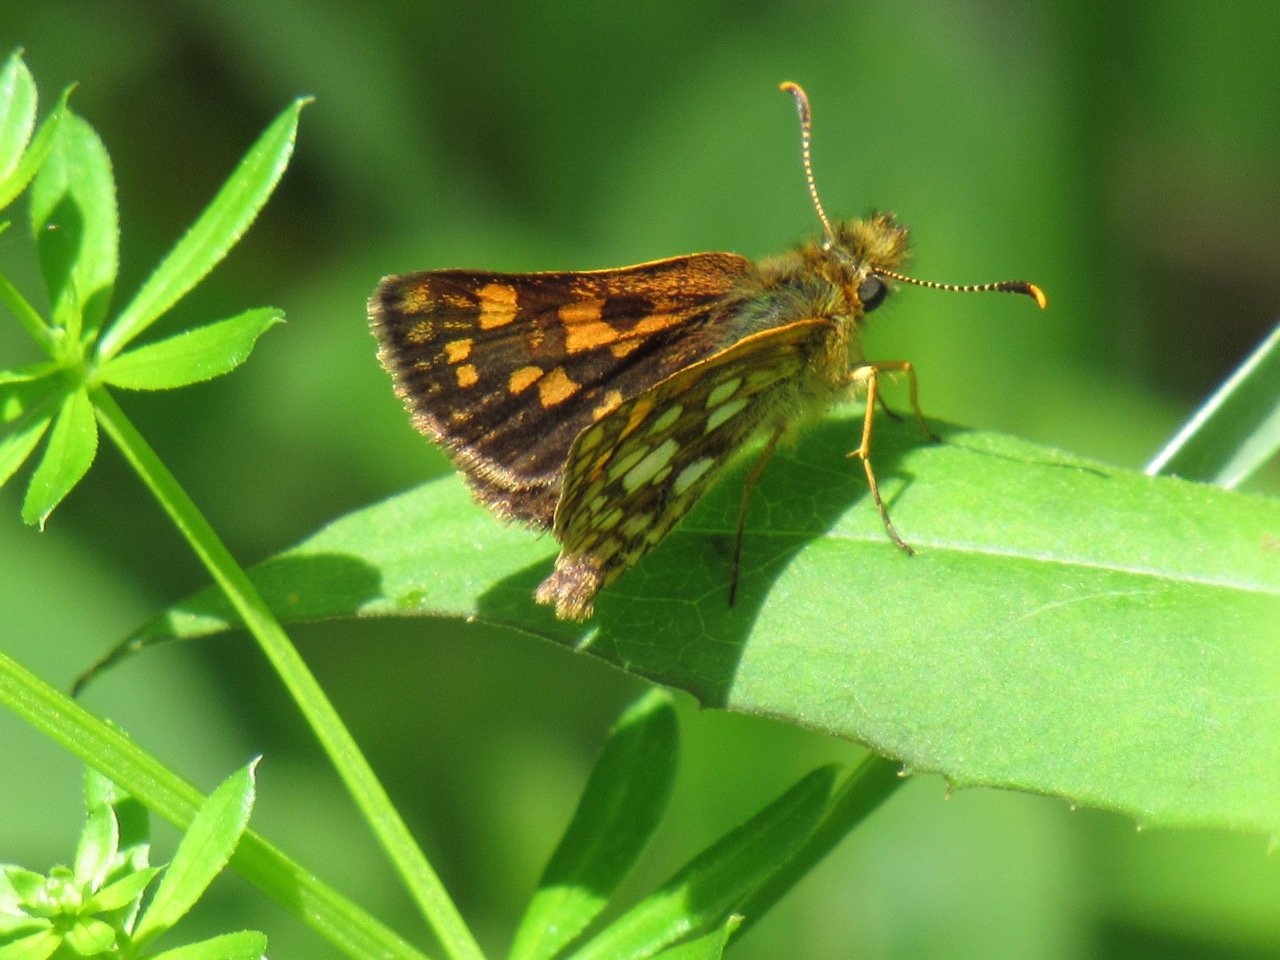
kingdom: Animalia
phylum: Arthropoda
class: Insecta
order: Lepidoptera
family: Hesperiidae
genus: Carterocephalus
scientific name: Carterocephalus palaemon
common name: Chequered Skipper
